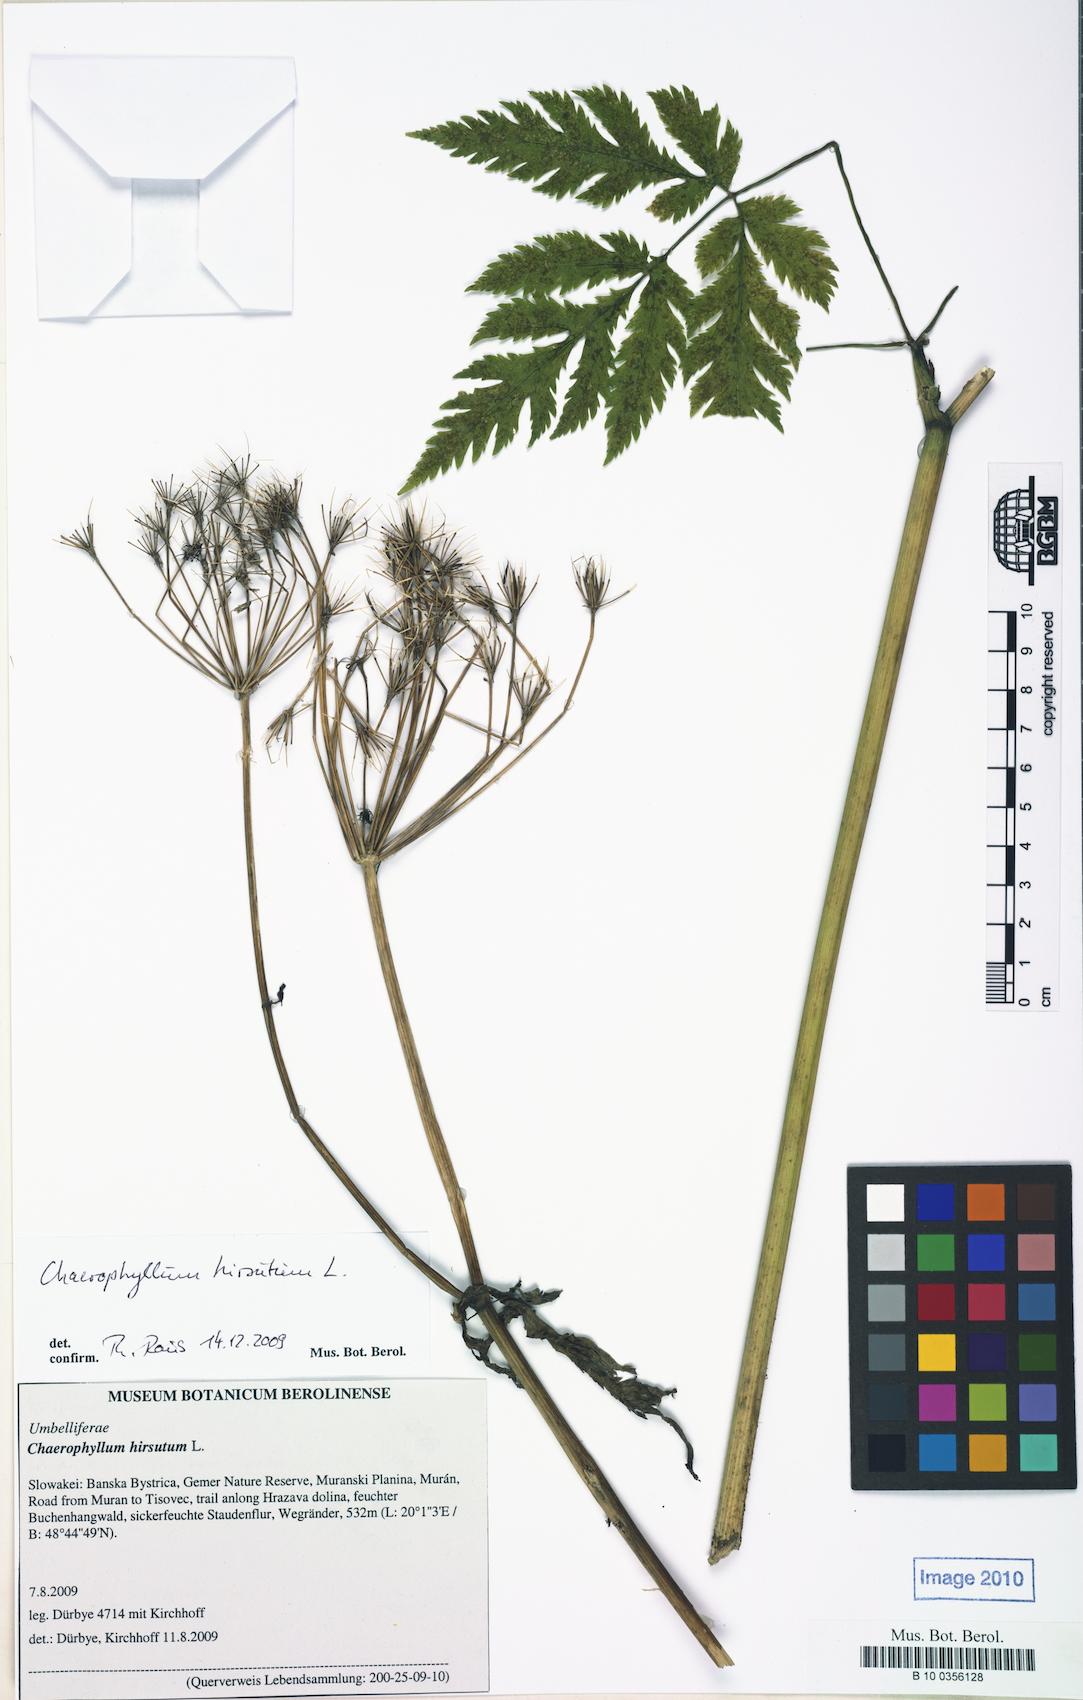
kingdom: Plantae
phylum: Tracheophyta
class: Magnoliopsida
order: Apiales
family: Apiaceae
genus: Chaerophyllum
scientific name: Chaerophyllum hirsutum
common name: Hairy chervil
